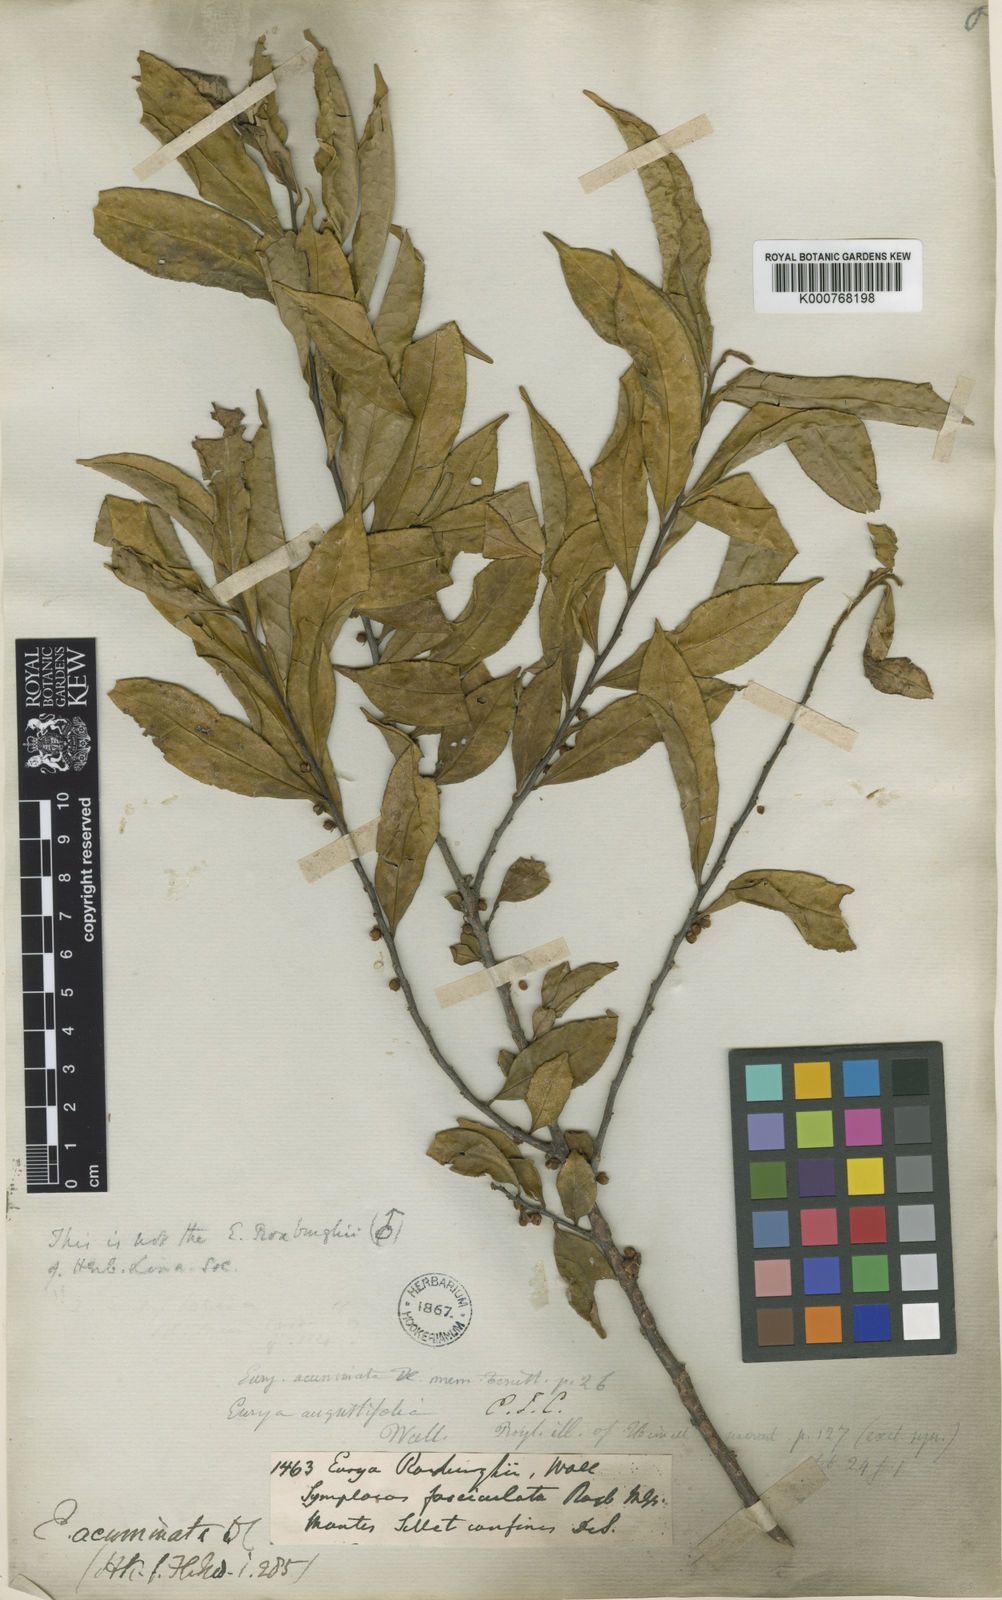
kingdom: Plantae
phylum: Tracheophyta
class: Magnoliopsida
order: Ericales
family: Pentaphylacaceae
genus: Eurya
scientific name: Eurya acuminata
